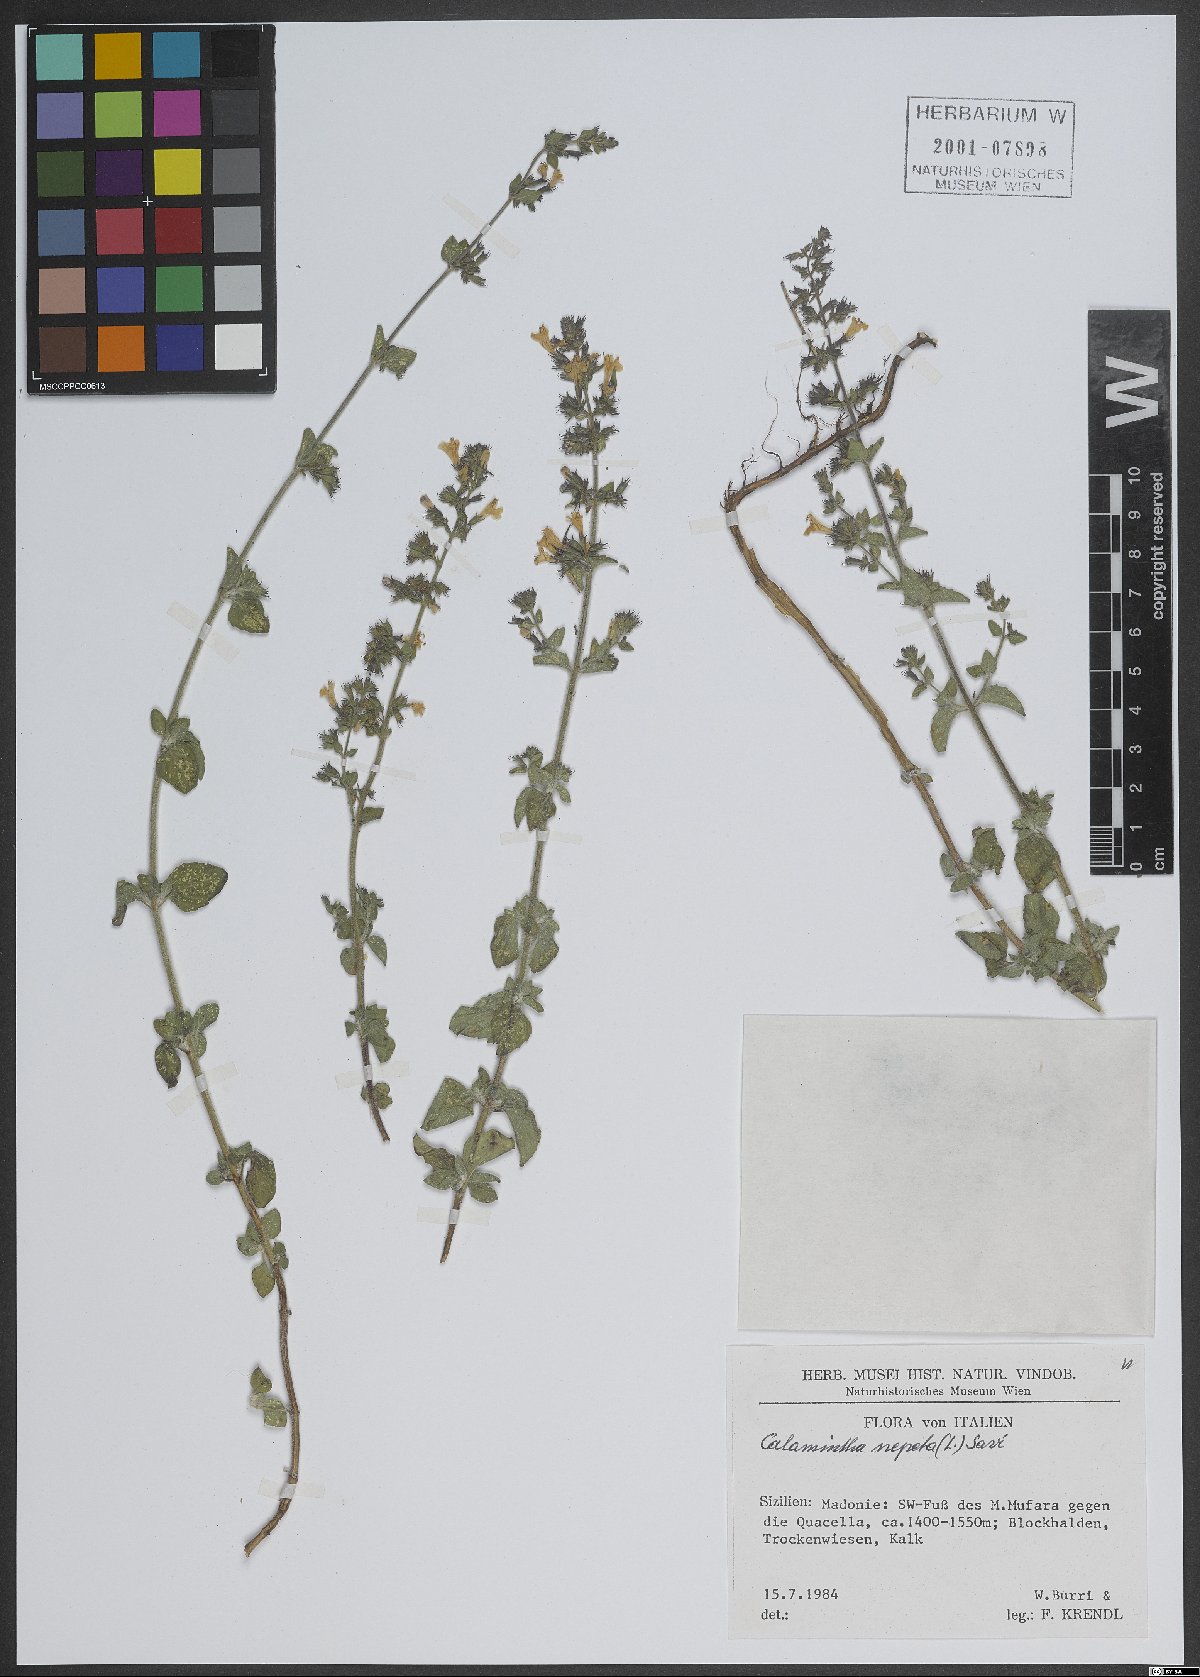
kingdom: Plantae
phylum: Tracheophyta
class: Magnoliopsida
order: Lamiales
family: Lamiaceae
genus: Clinopodium
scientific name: Clinopodium nepeta
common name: Lesser calamint
